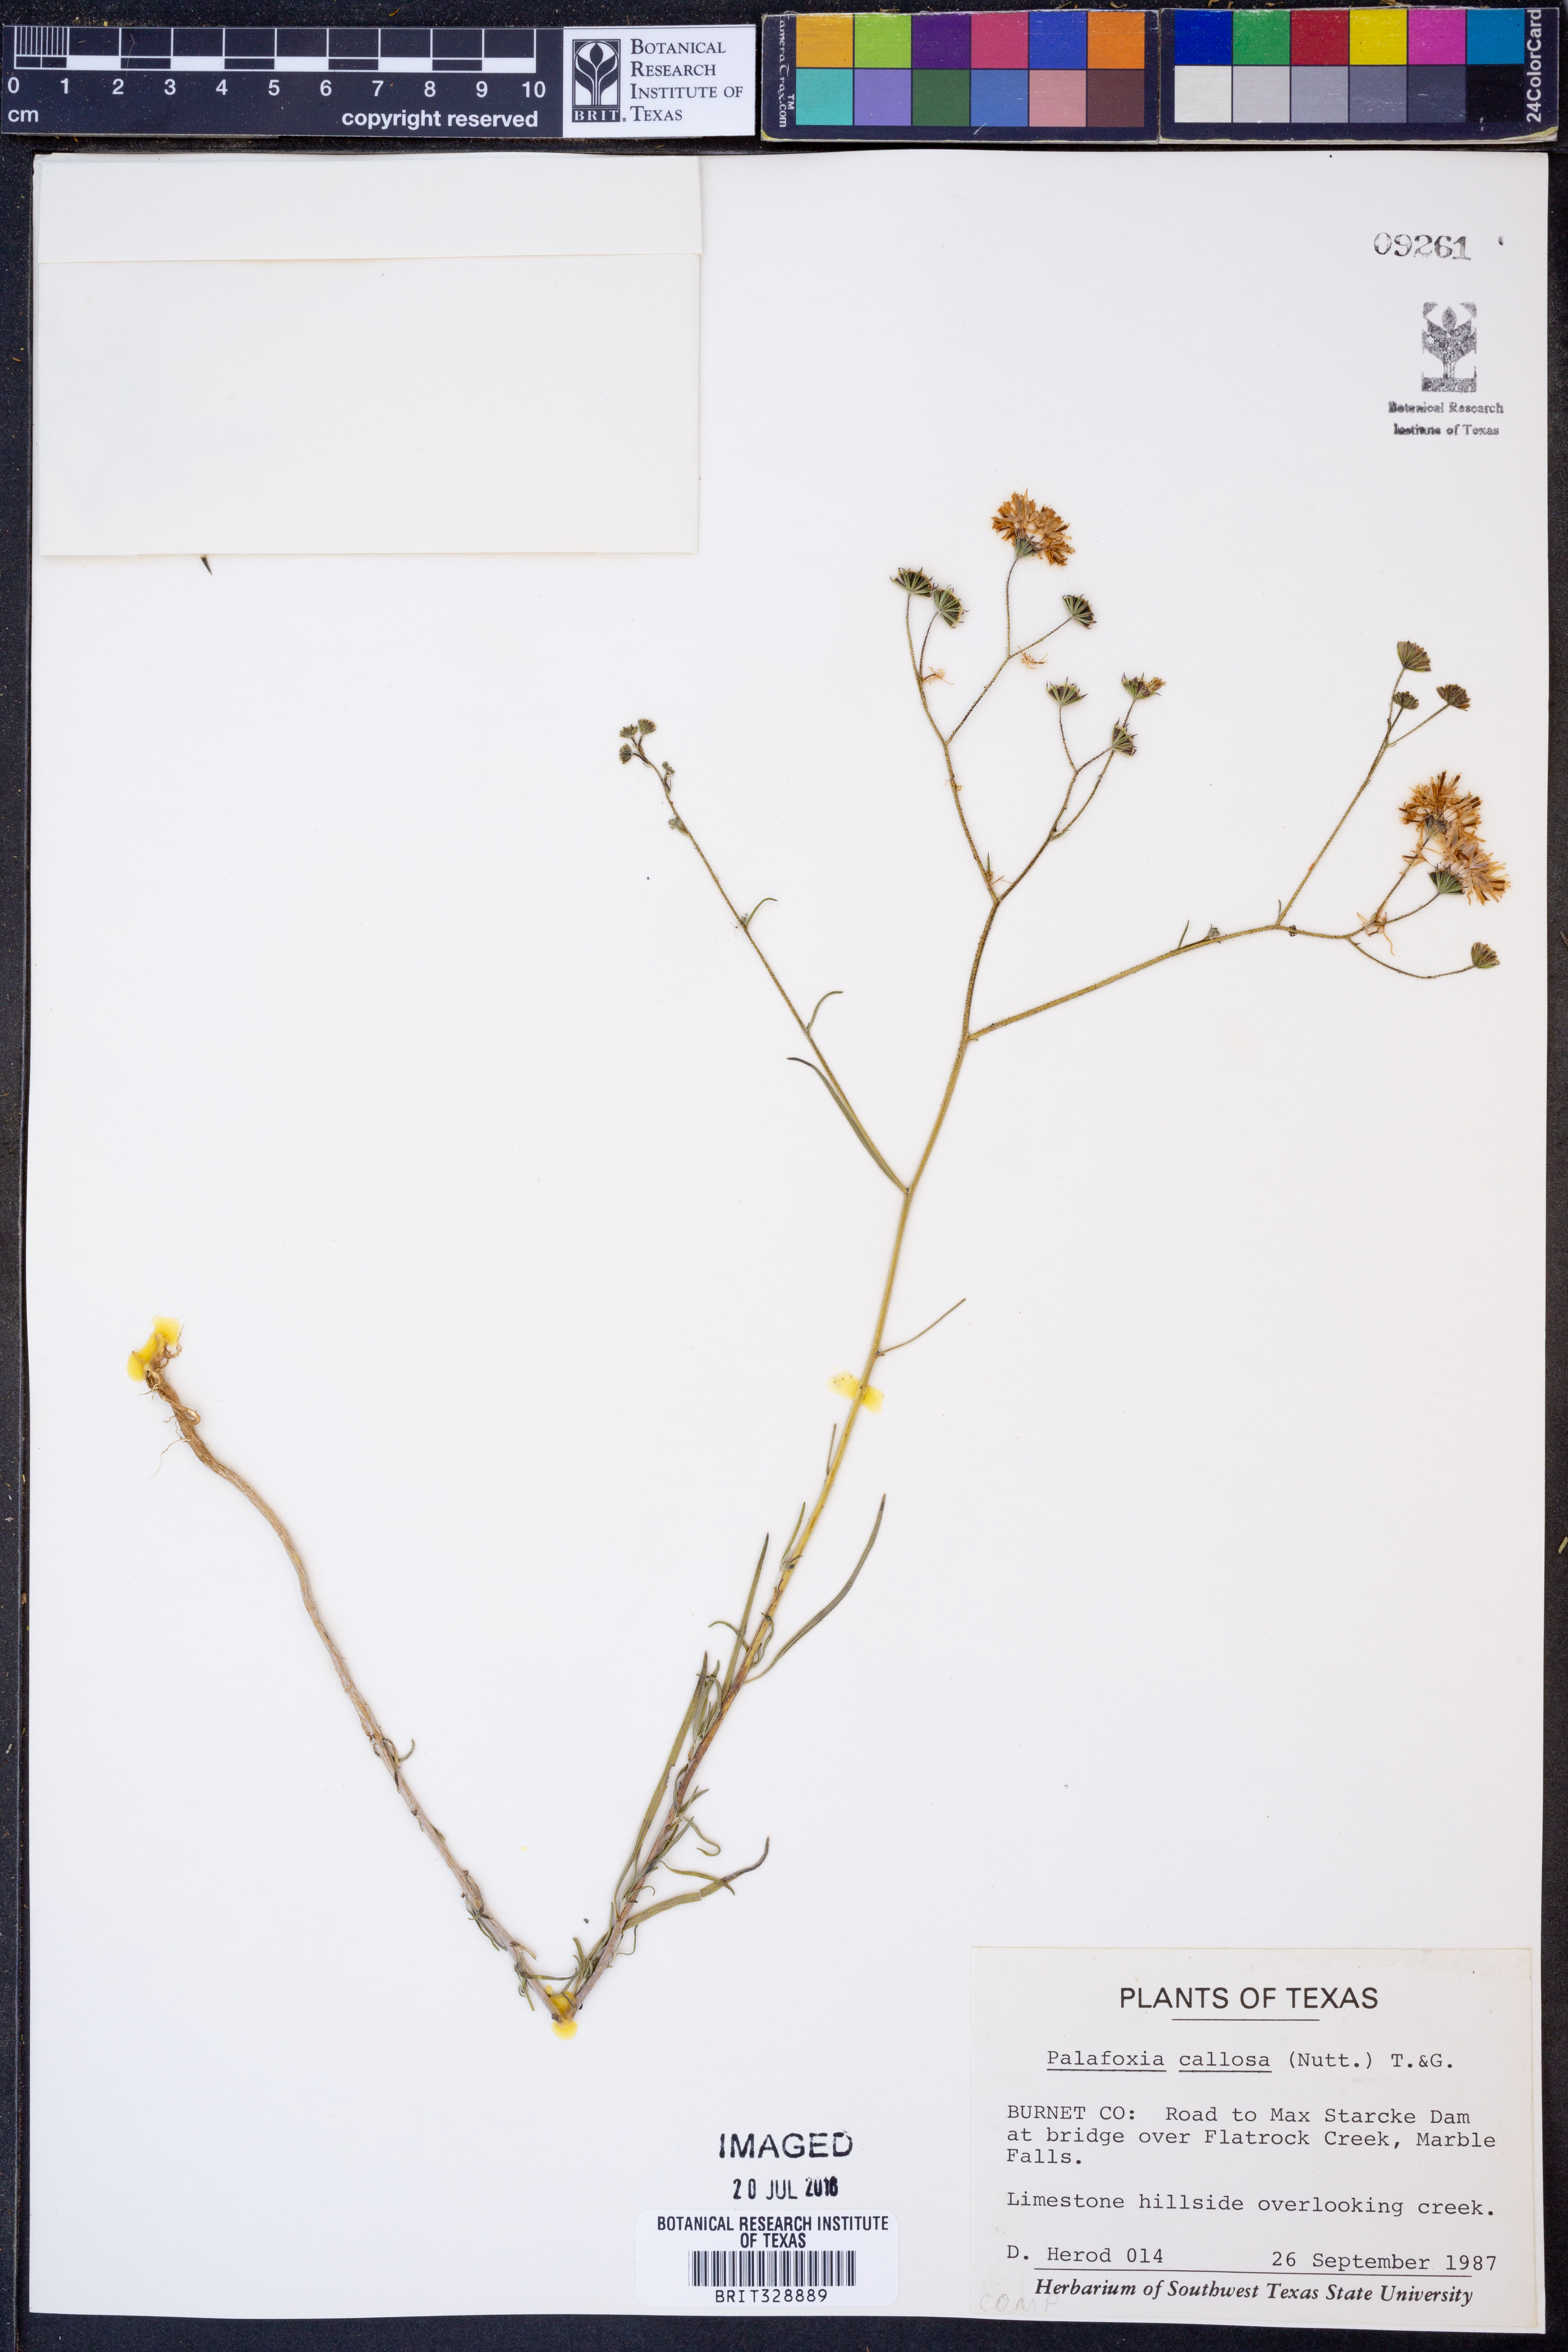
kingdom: Plantae
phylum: Tracheophyta
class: Magnoliopsida
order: Asterales
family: Asteraceae
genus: Palafoxia
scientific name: Palafoxia callosa
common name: Small palafox
